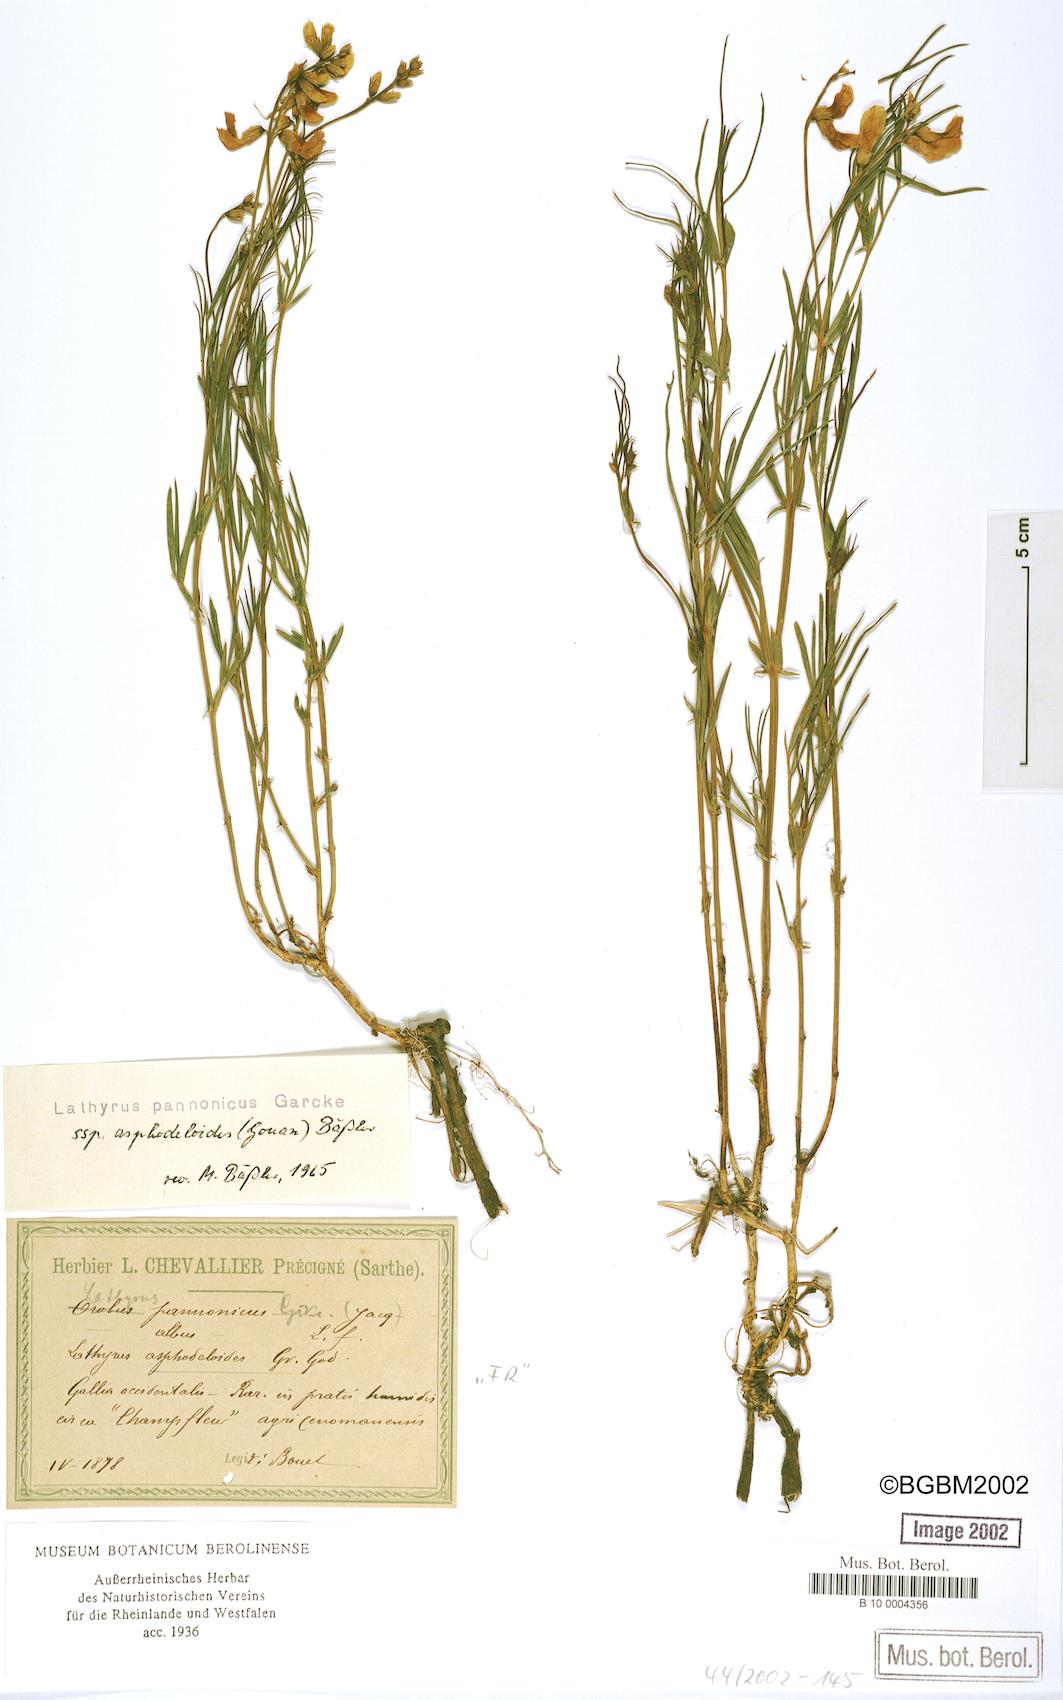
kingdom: Plantae
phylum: Tracheophyta
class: Magnoliopsida
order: Fabales
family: Fabaceae
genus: Lathyrus
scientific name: Lathyrus pannonicus
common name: Pea
